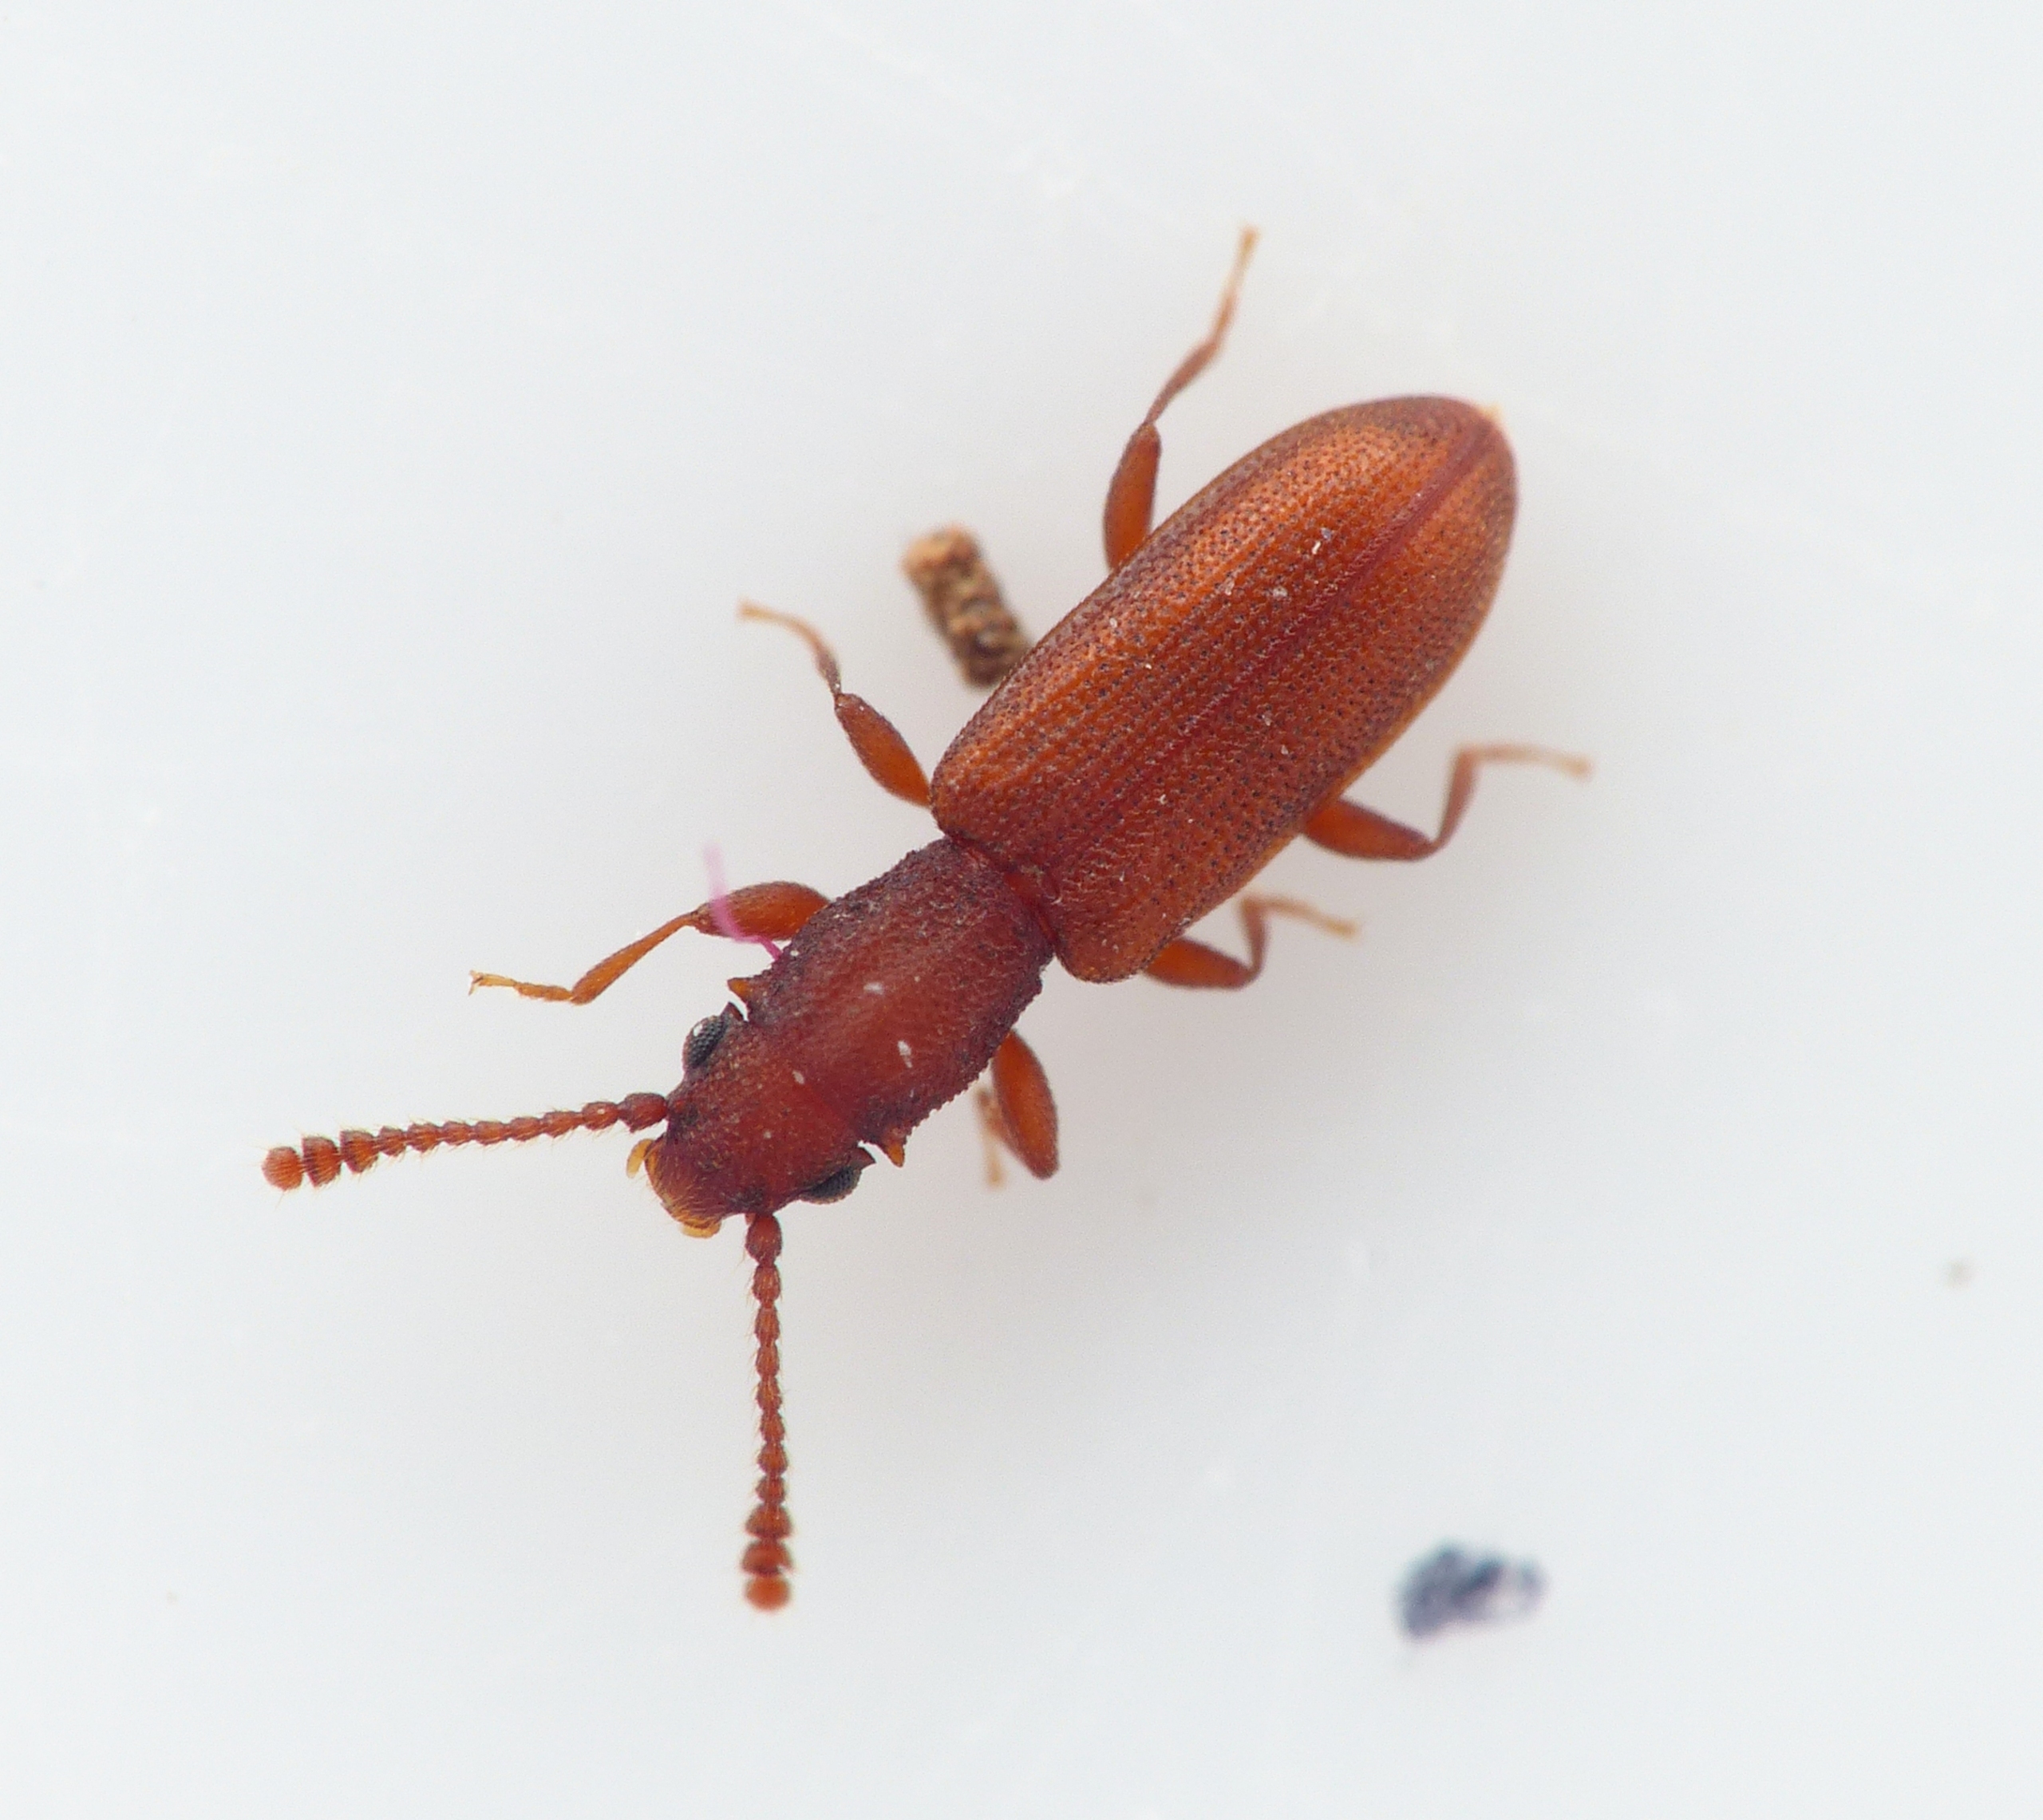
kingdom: Animalia
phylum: Arthropoda
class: Insecta
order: Coleoptera
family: Curculionidae
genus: Pityogenes
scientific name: Pityogenes bidentatus
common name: Stor egefladbille
